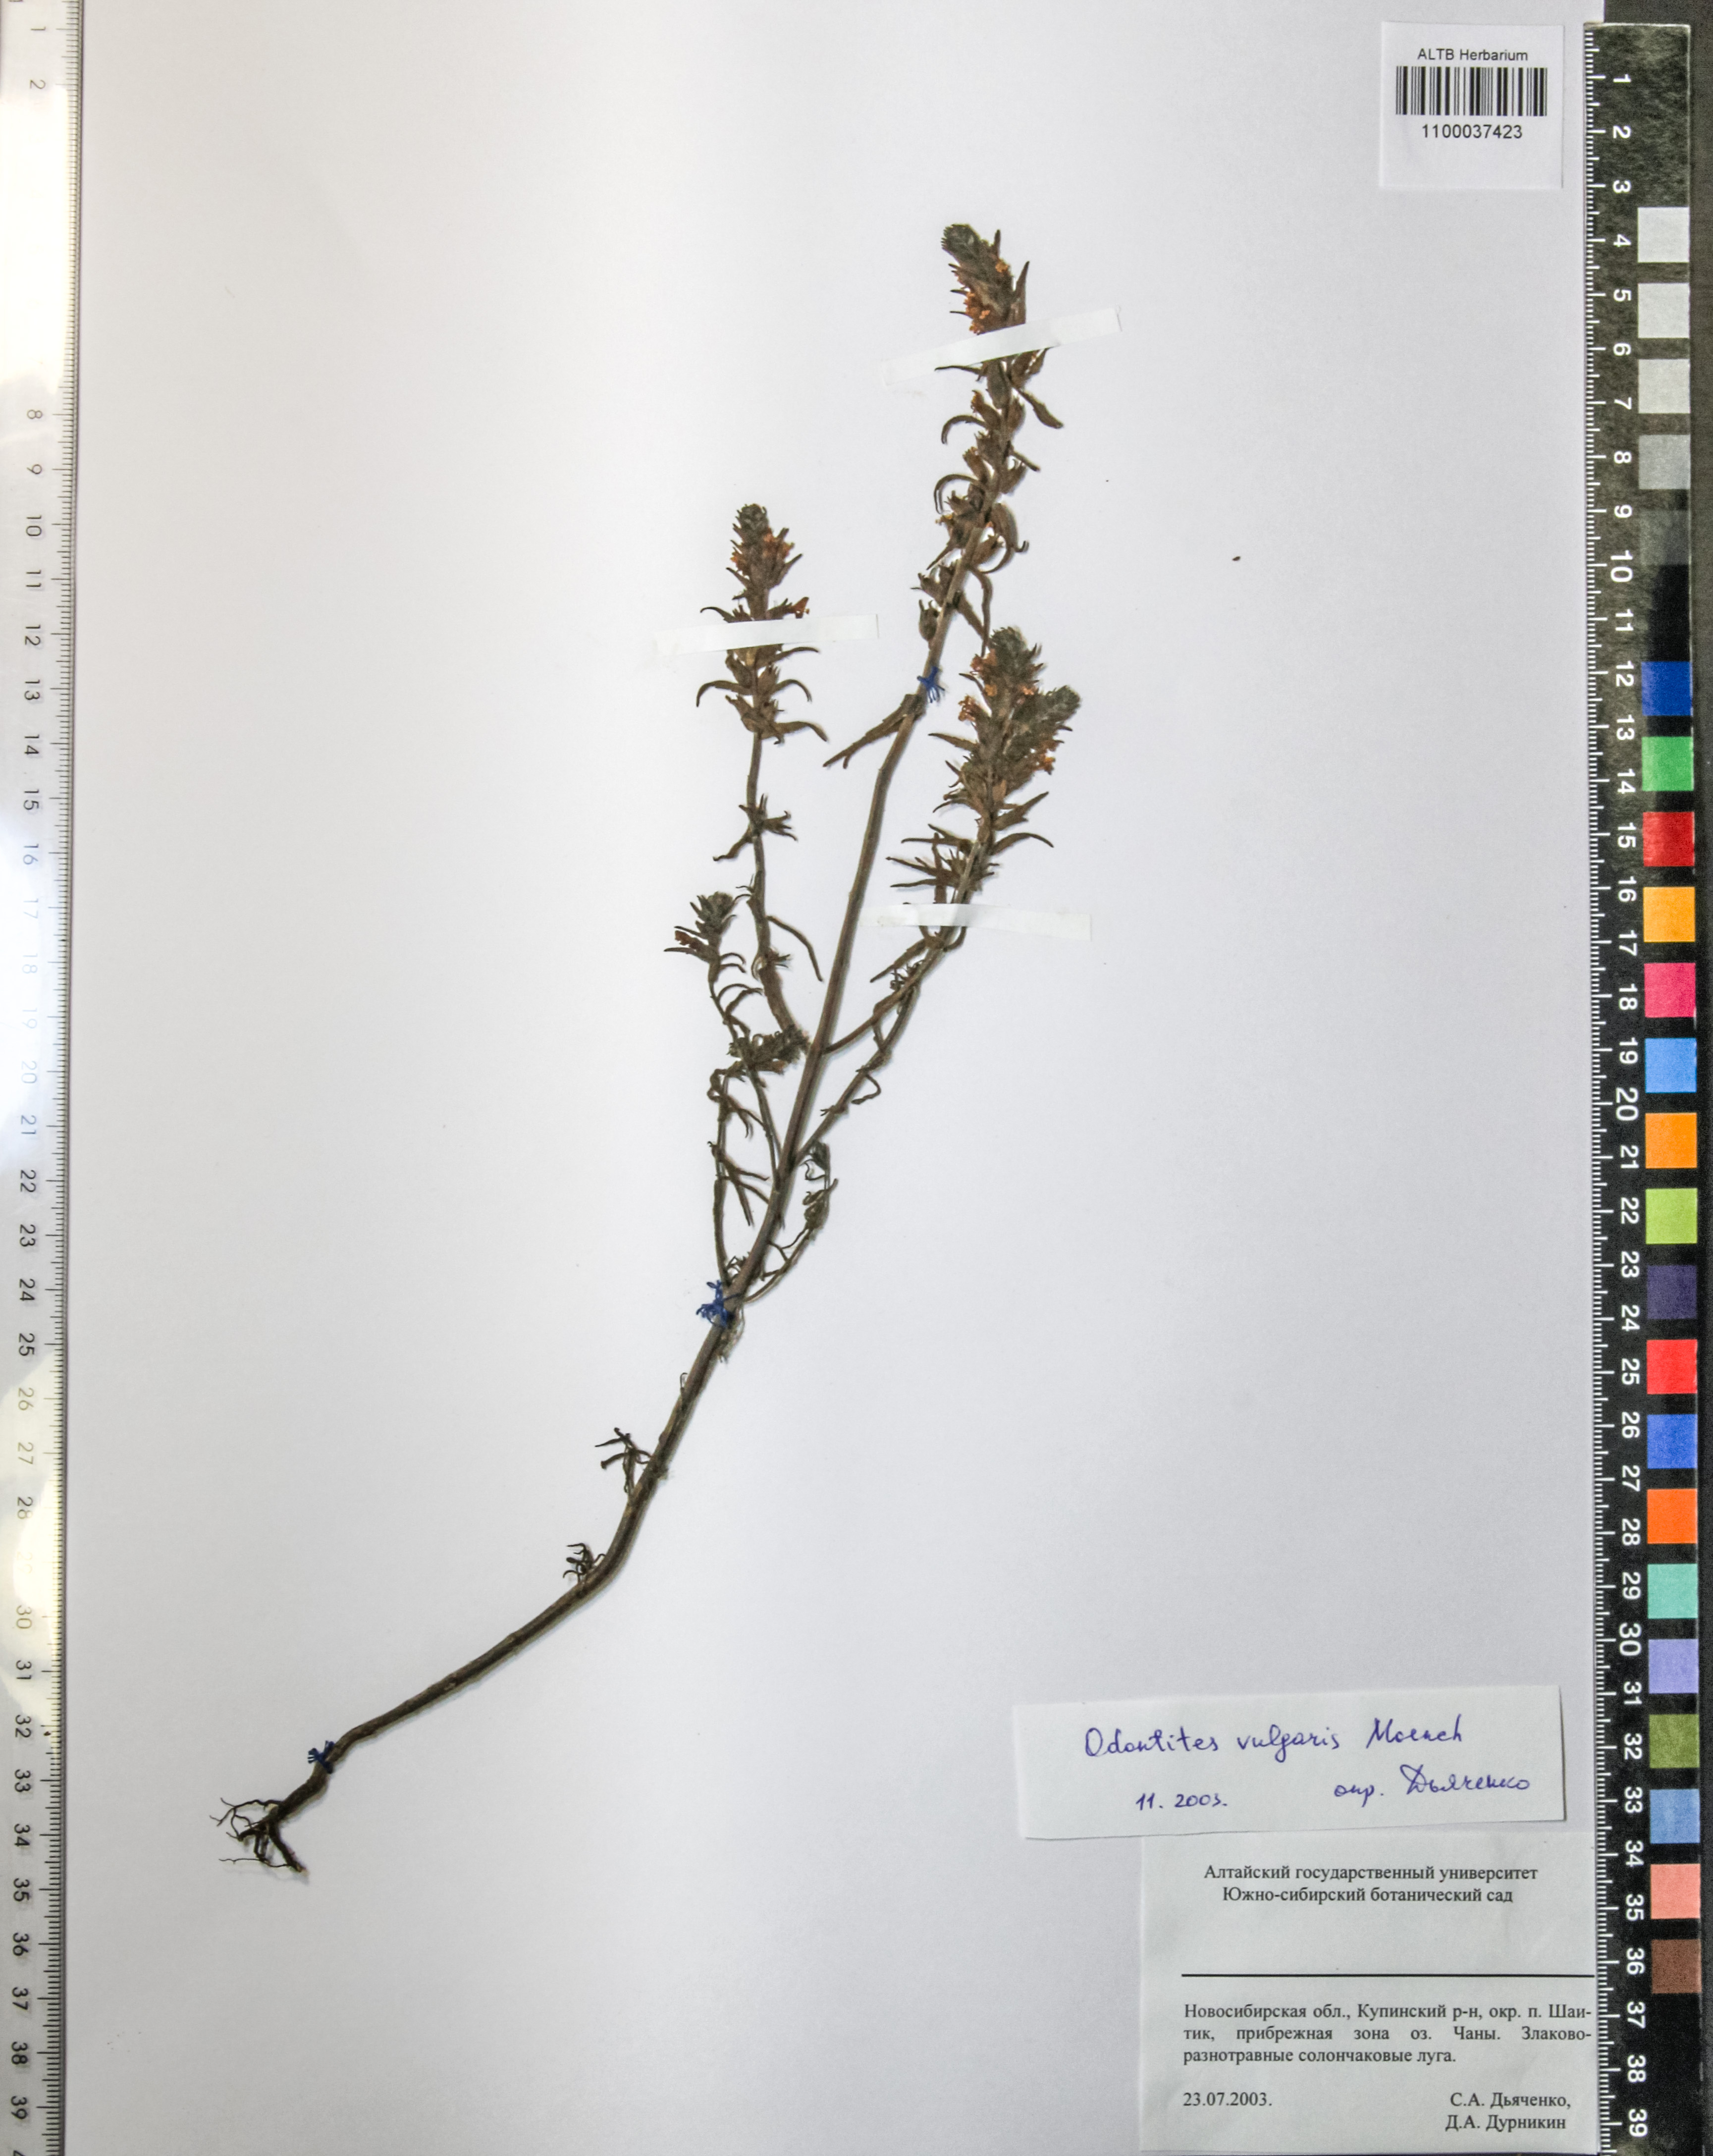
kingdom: Plantae
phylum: Tracheophyta
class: Magnoliopsida
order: Lamiales
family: Orobanchaceae
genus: Odontites
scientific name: Odontites vulgaris
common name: Broomrape
